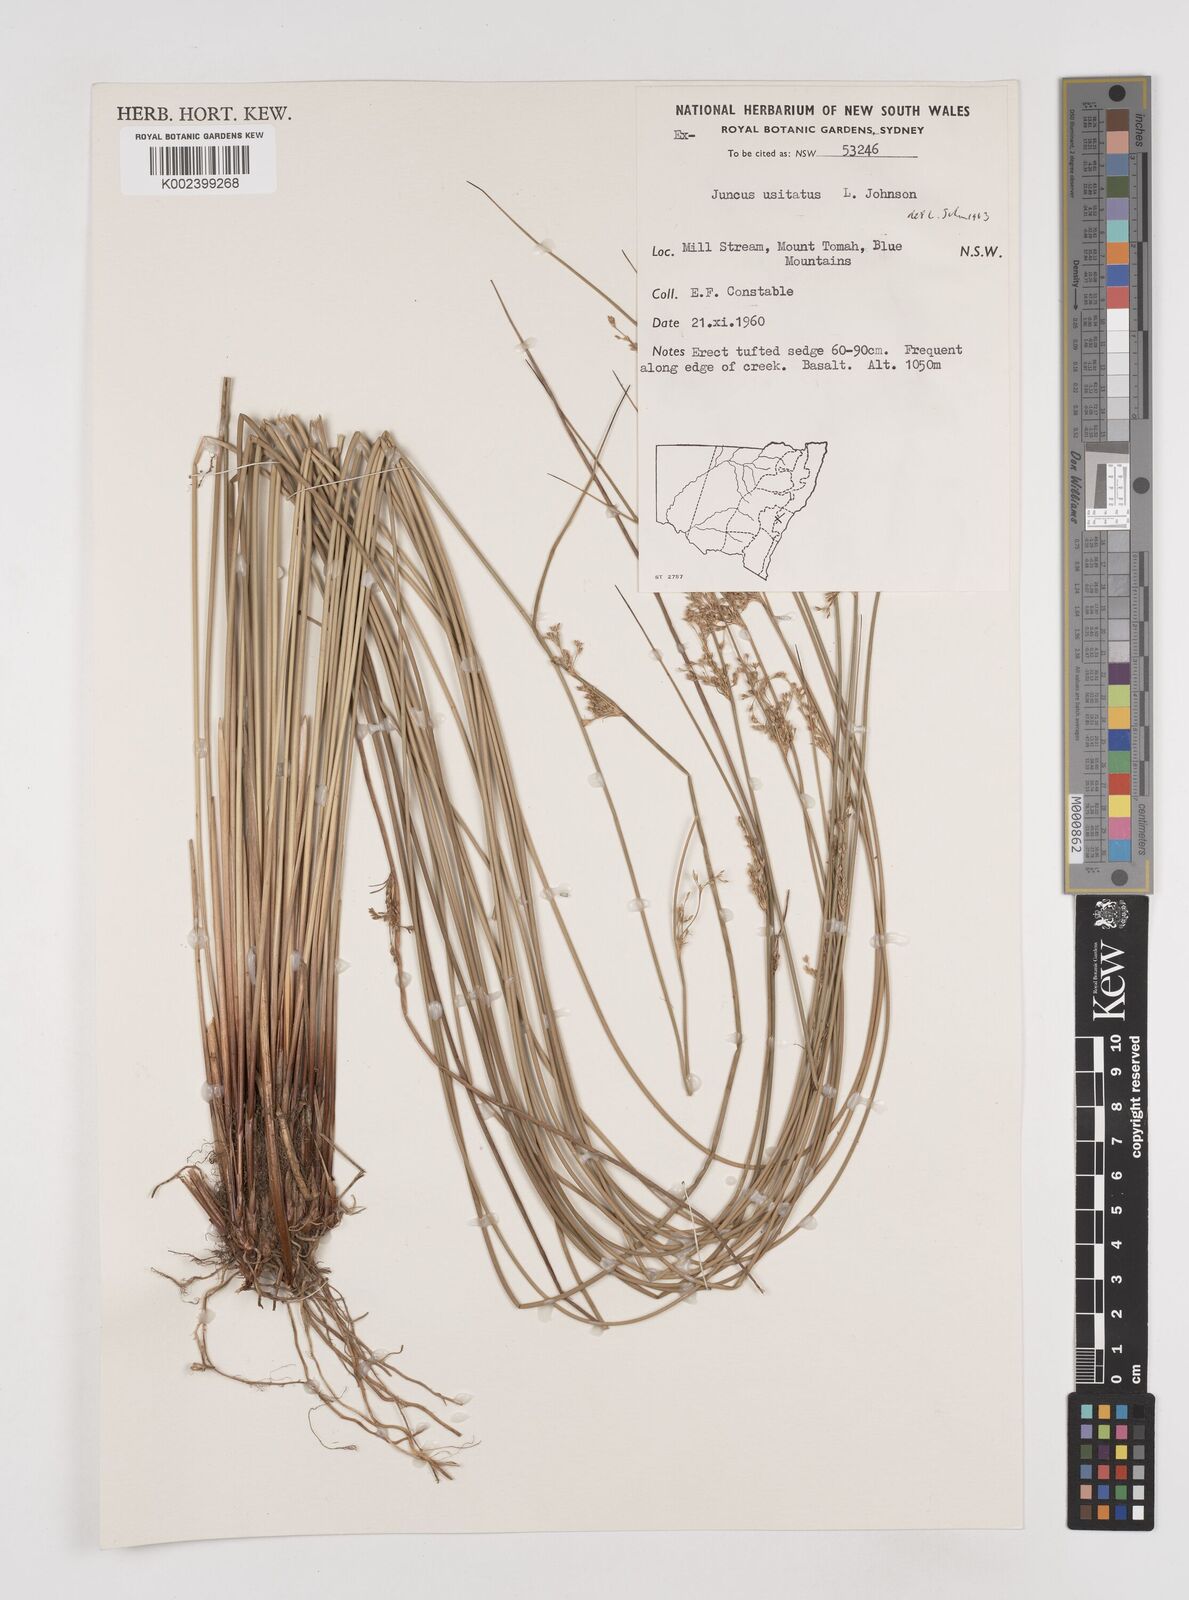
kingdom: Plantae
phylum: Tracheophyta
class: Liliopsida
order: Poales
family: Juncaceae
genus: Juncus
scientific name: Juncus usitatus
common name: Rush
